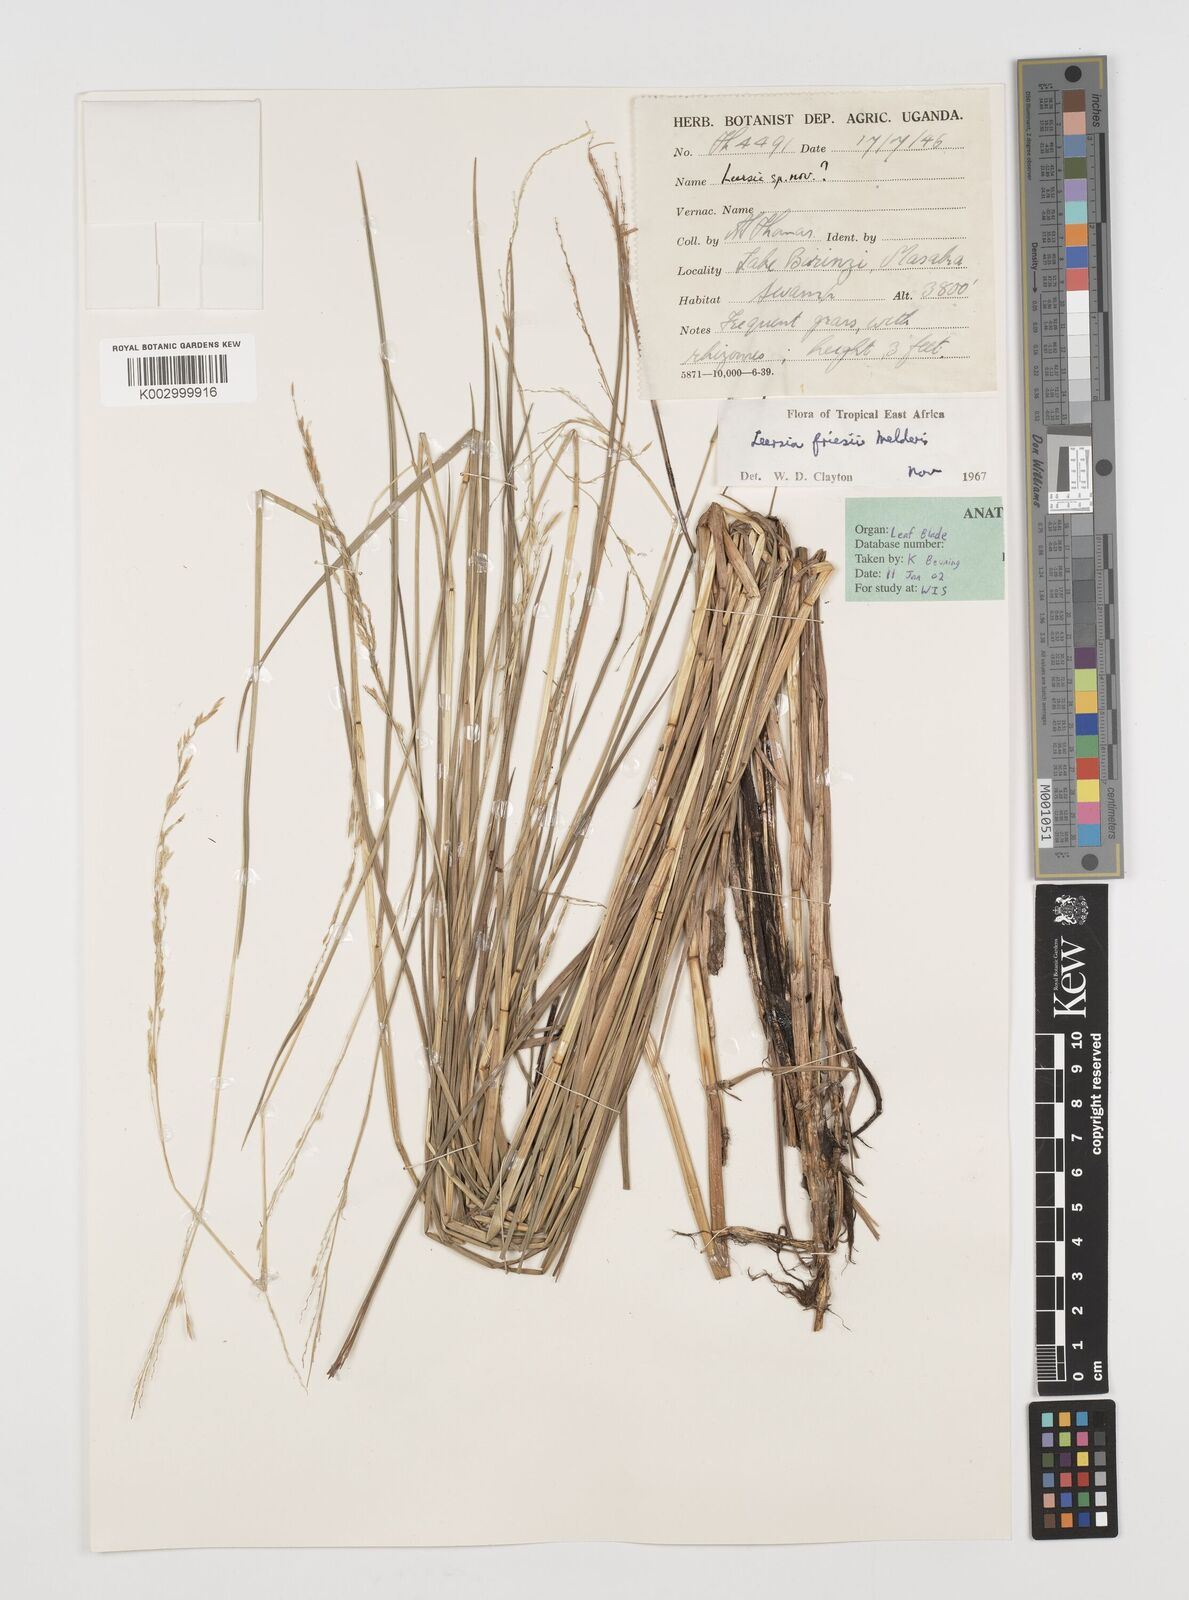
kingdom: Plantae
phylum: Tracheophyta
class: Liliopsida
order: Poales
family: Poaceae
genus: Leersia
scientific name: Leersia friesii
